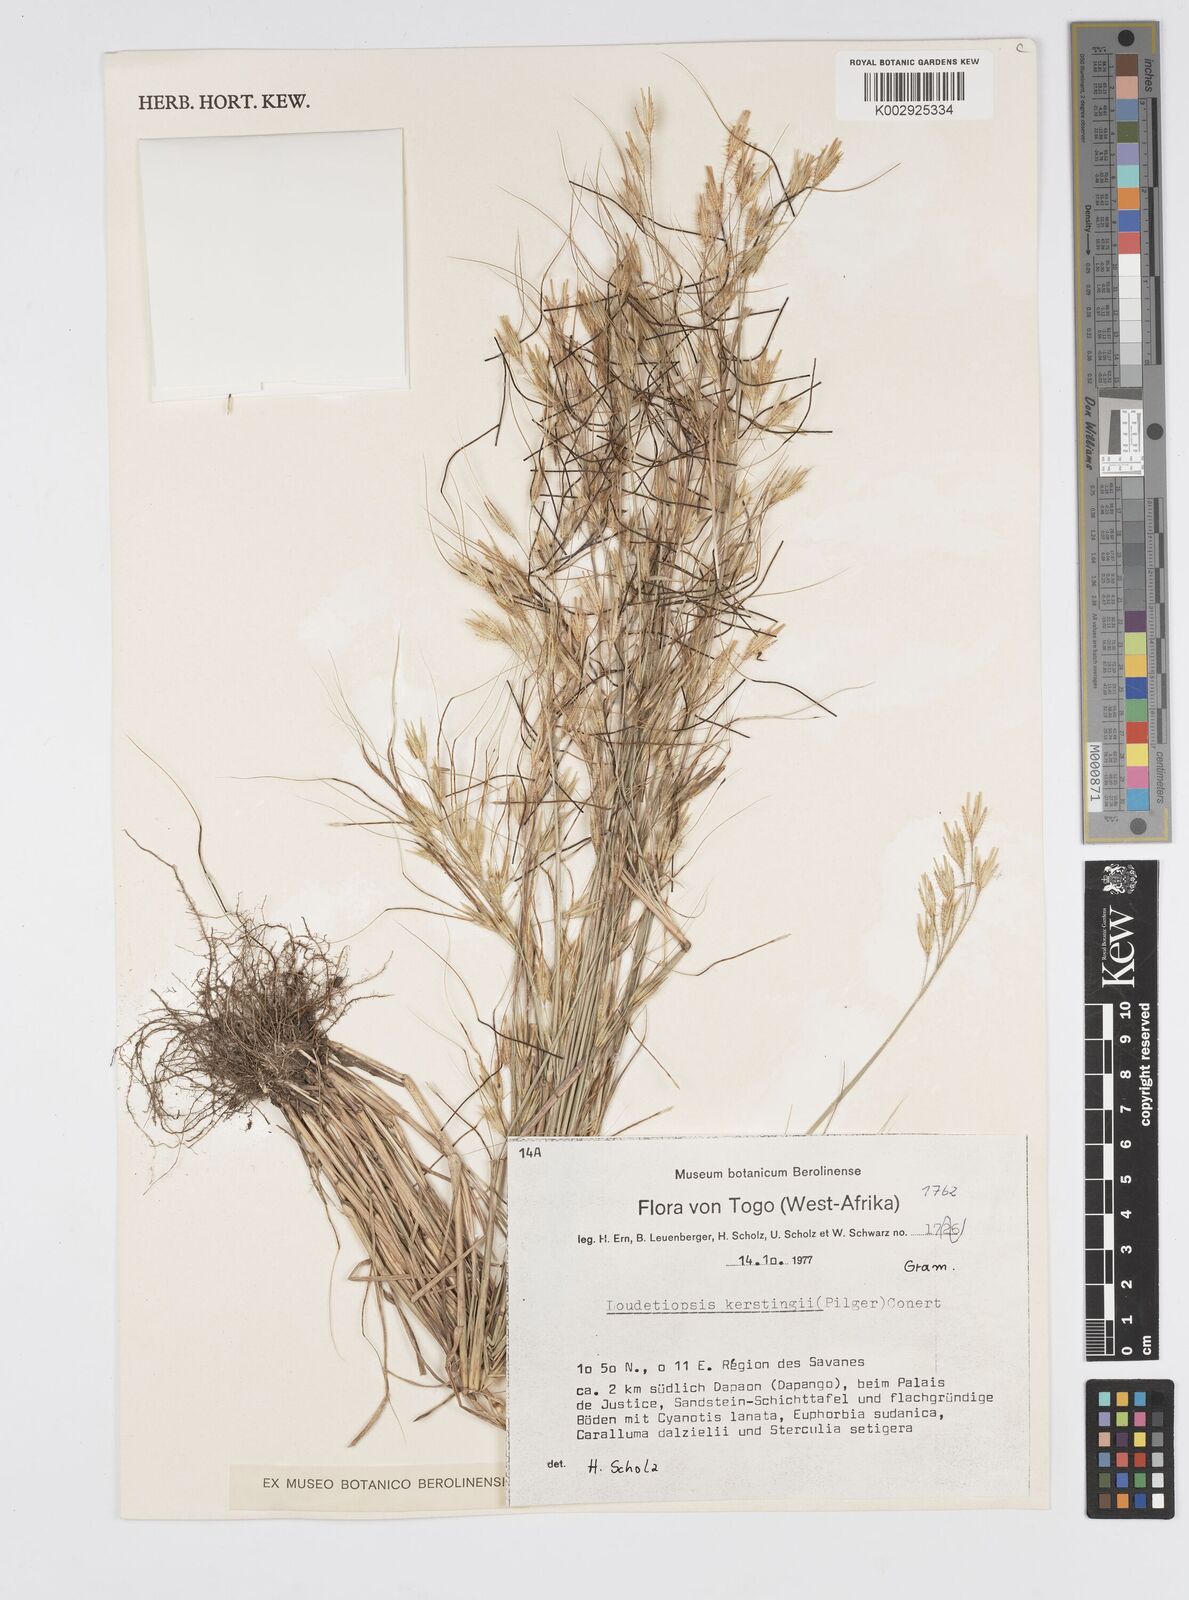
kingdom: Plantae
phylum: Tracheophyta
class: Liliopsida
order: Poales
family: Poaceae
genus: Loudetiopsis
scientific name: Loudetiopsis kerstingii
